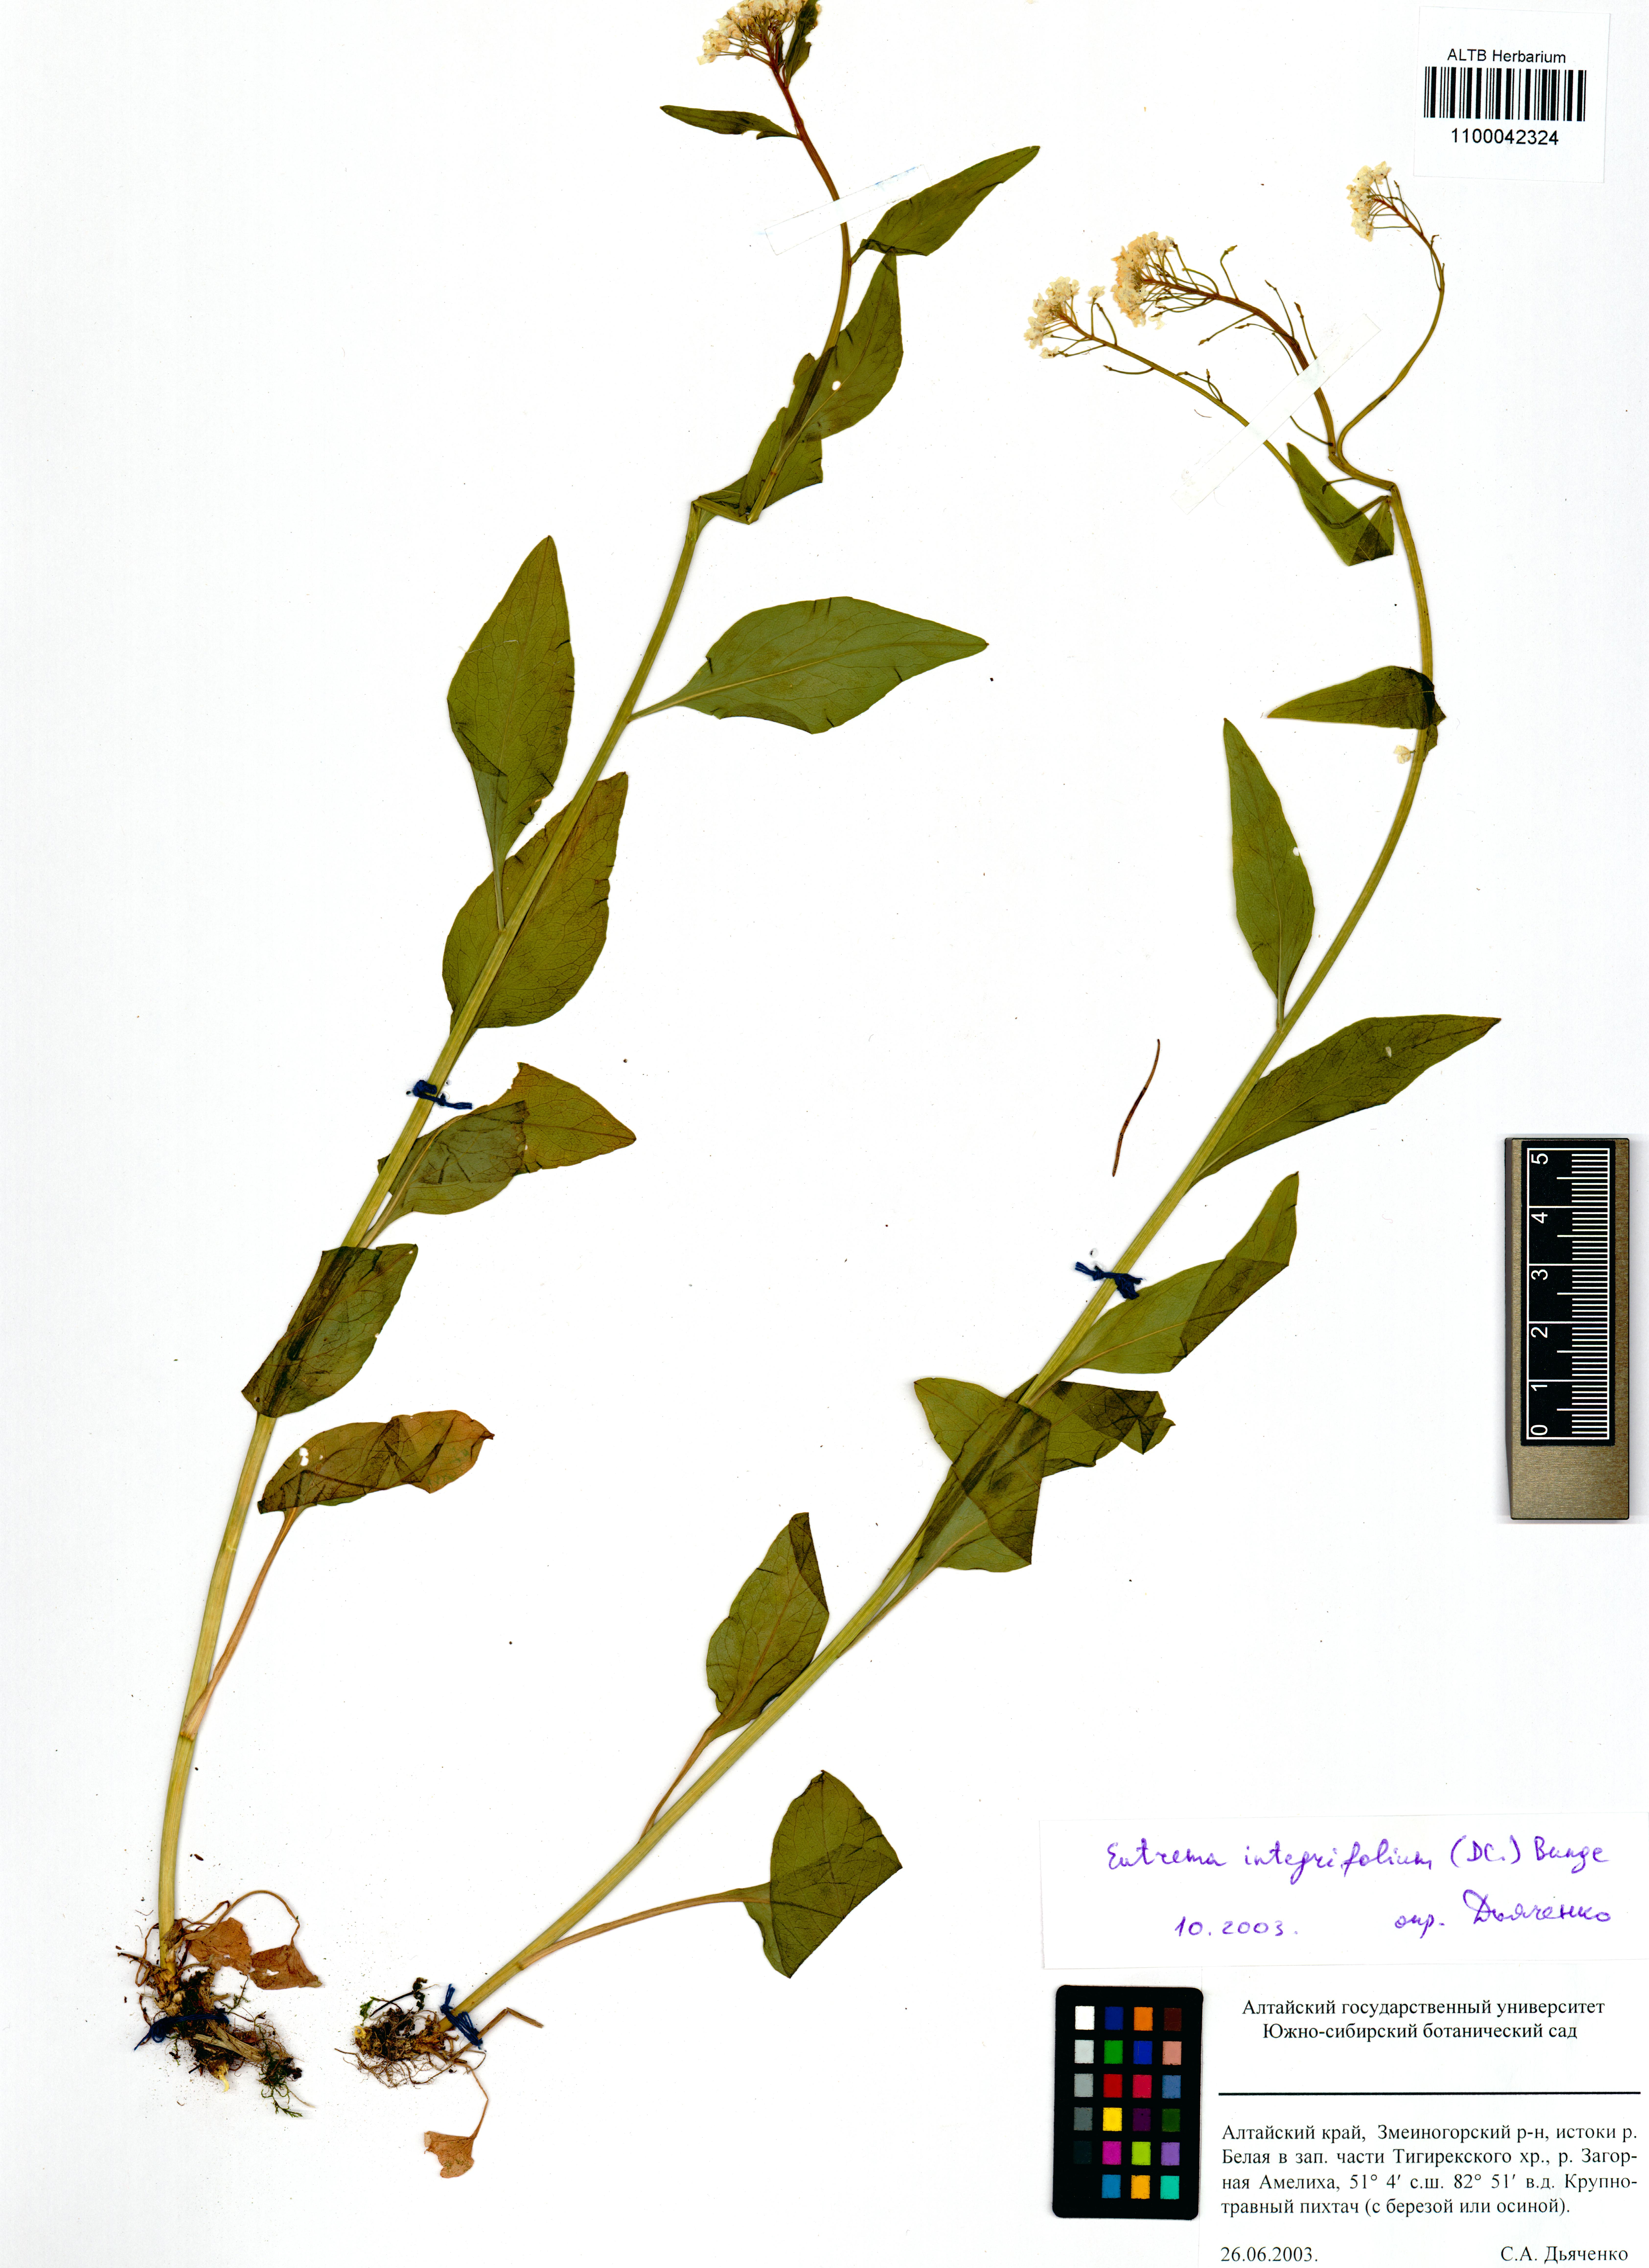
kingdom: Plantae
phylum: Tracheophyta
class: Magnoliopsida
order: Brassicales
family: Brassicaceae
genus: Eutrema
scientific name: Eutrema integrifolium
